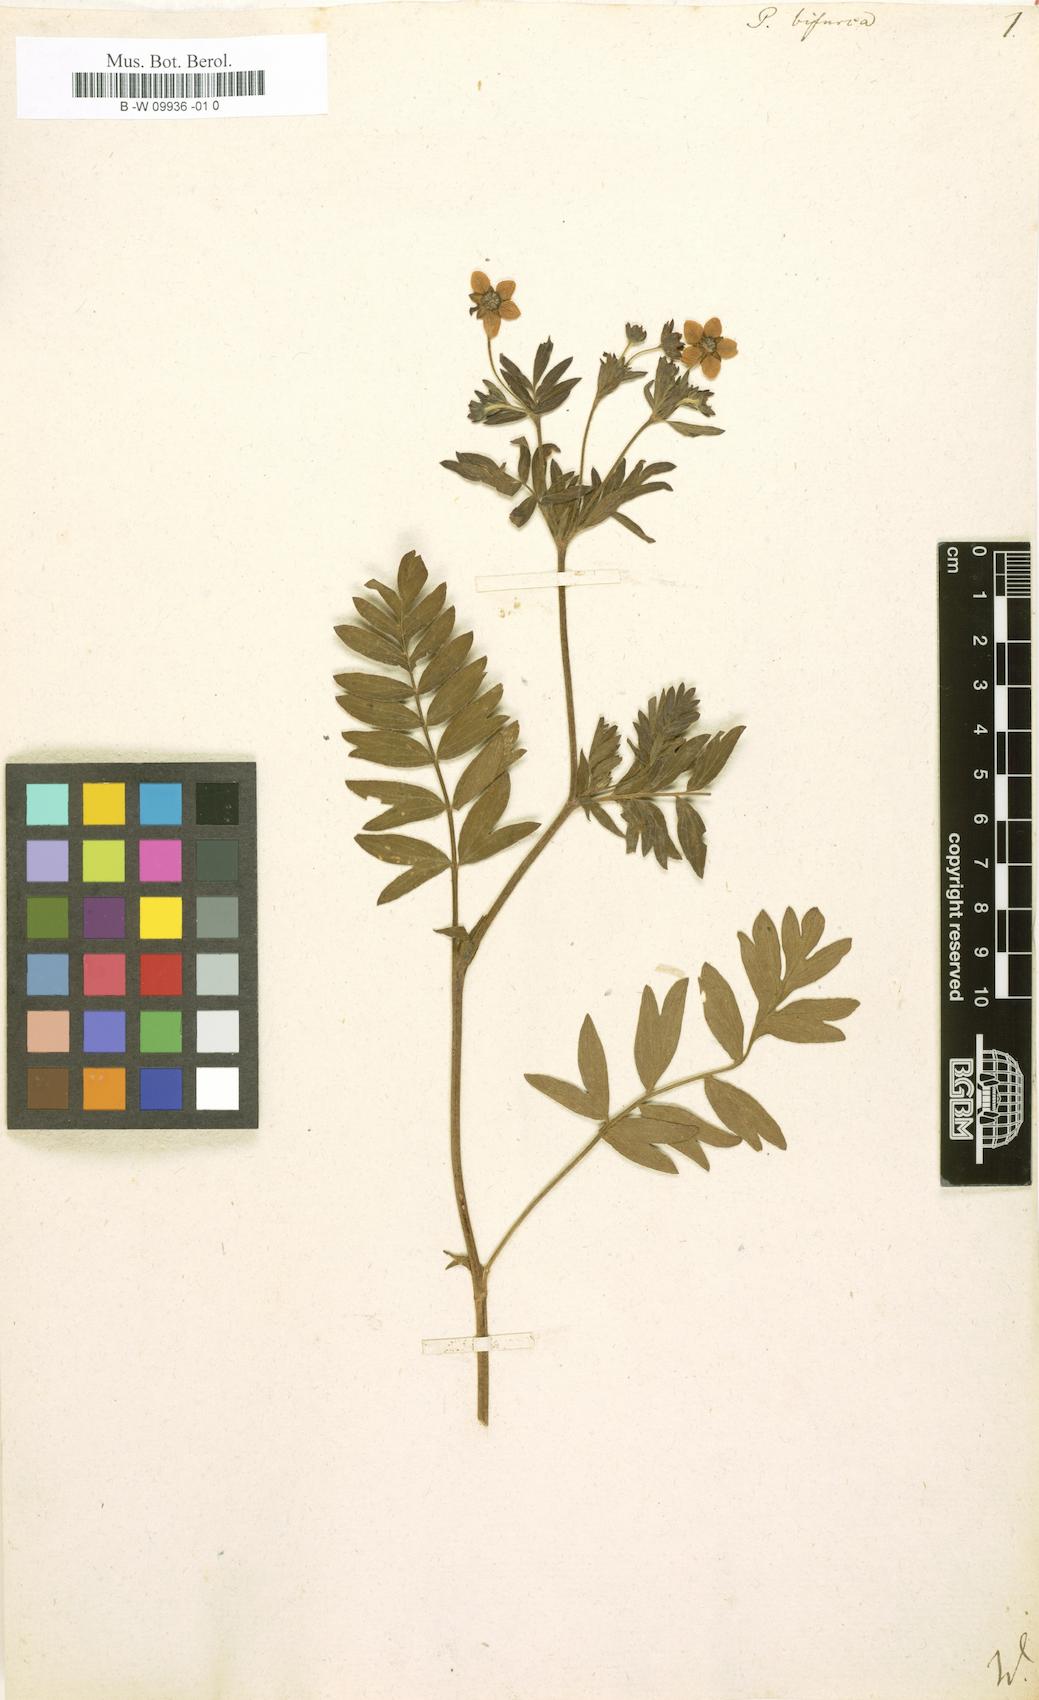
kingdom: Plantae
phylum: Tracheophyta
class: Magnoliopsida
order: Rosales
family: Rosaceae
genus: Sibbaldianthe
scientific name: Sibbaldianthe bifurca
